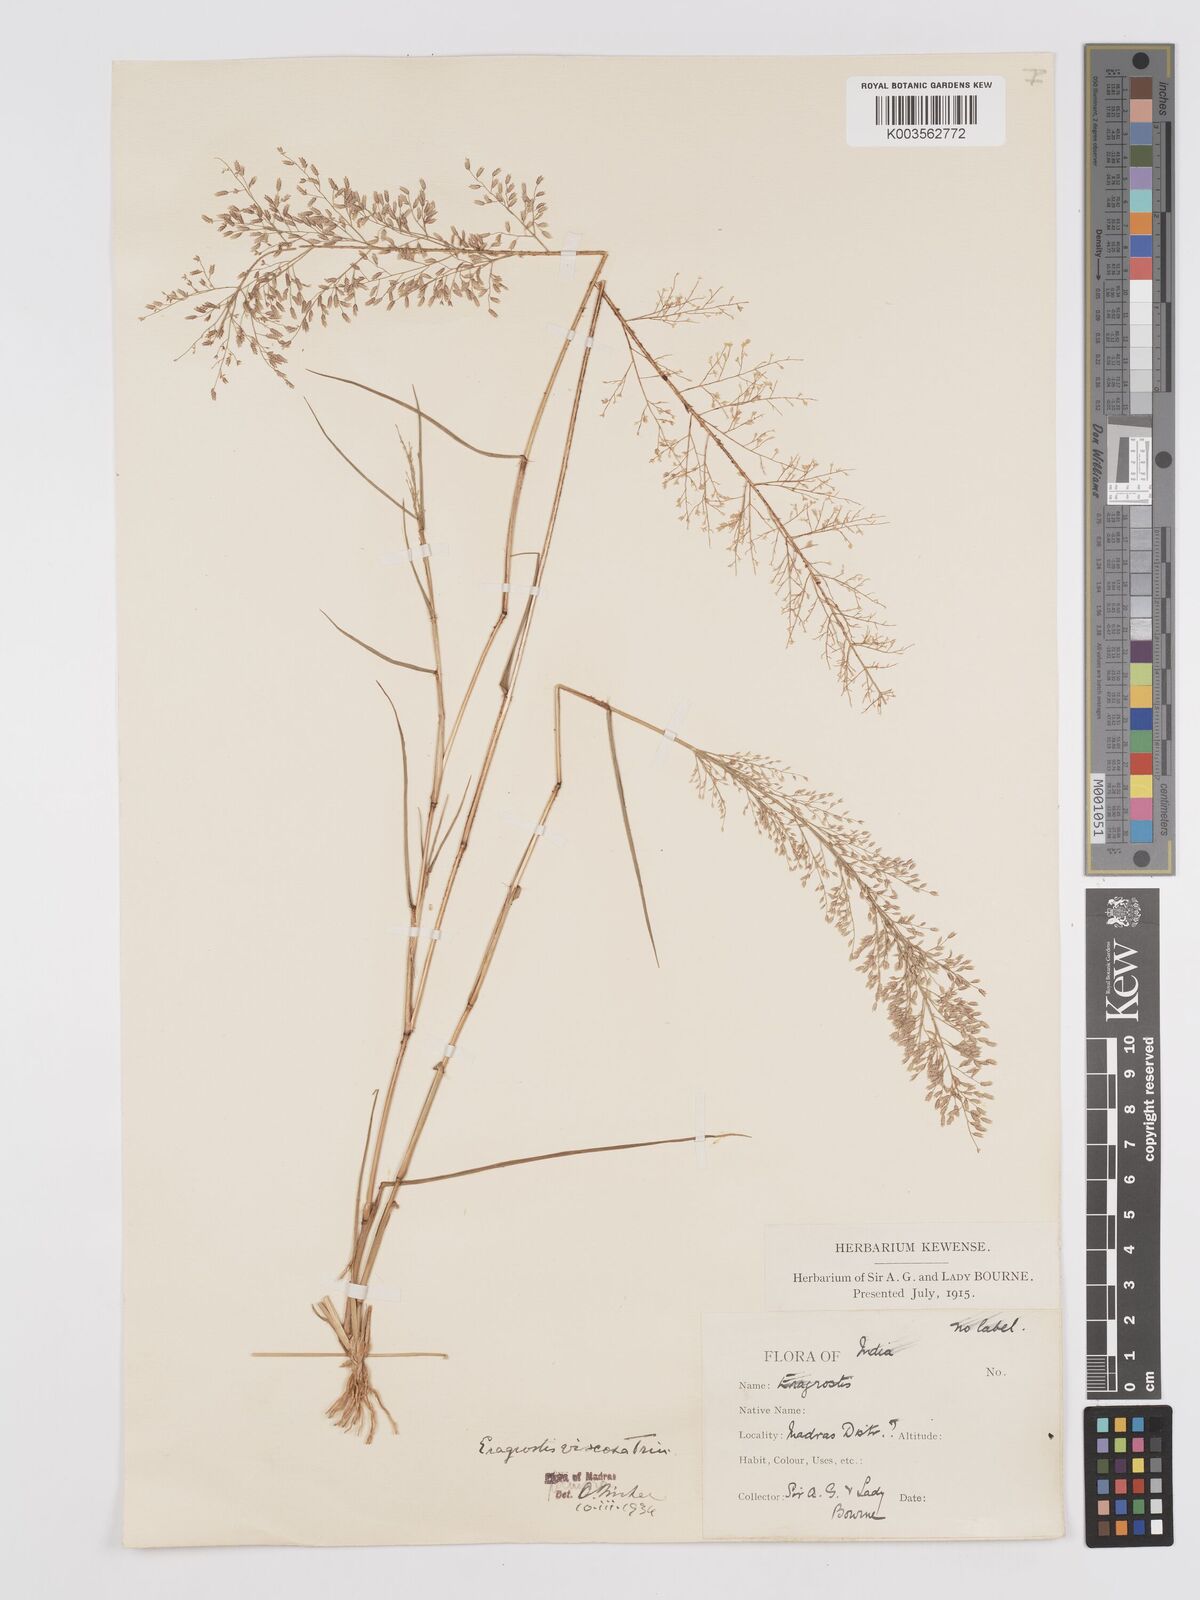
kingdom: Plantae
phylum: Tracheophyta
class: Liliopsida
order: Poales
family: Poaceae
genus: Eragrostis
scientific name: Eragrostis viscosa
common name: Sticky love grass
